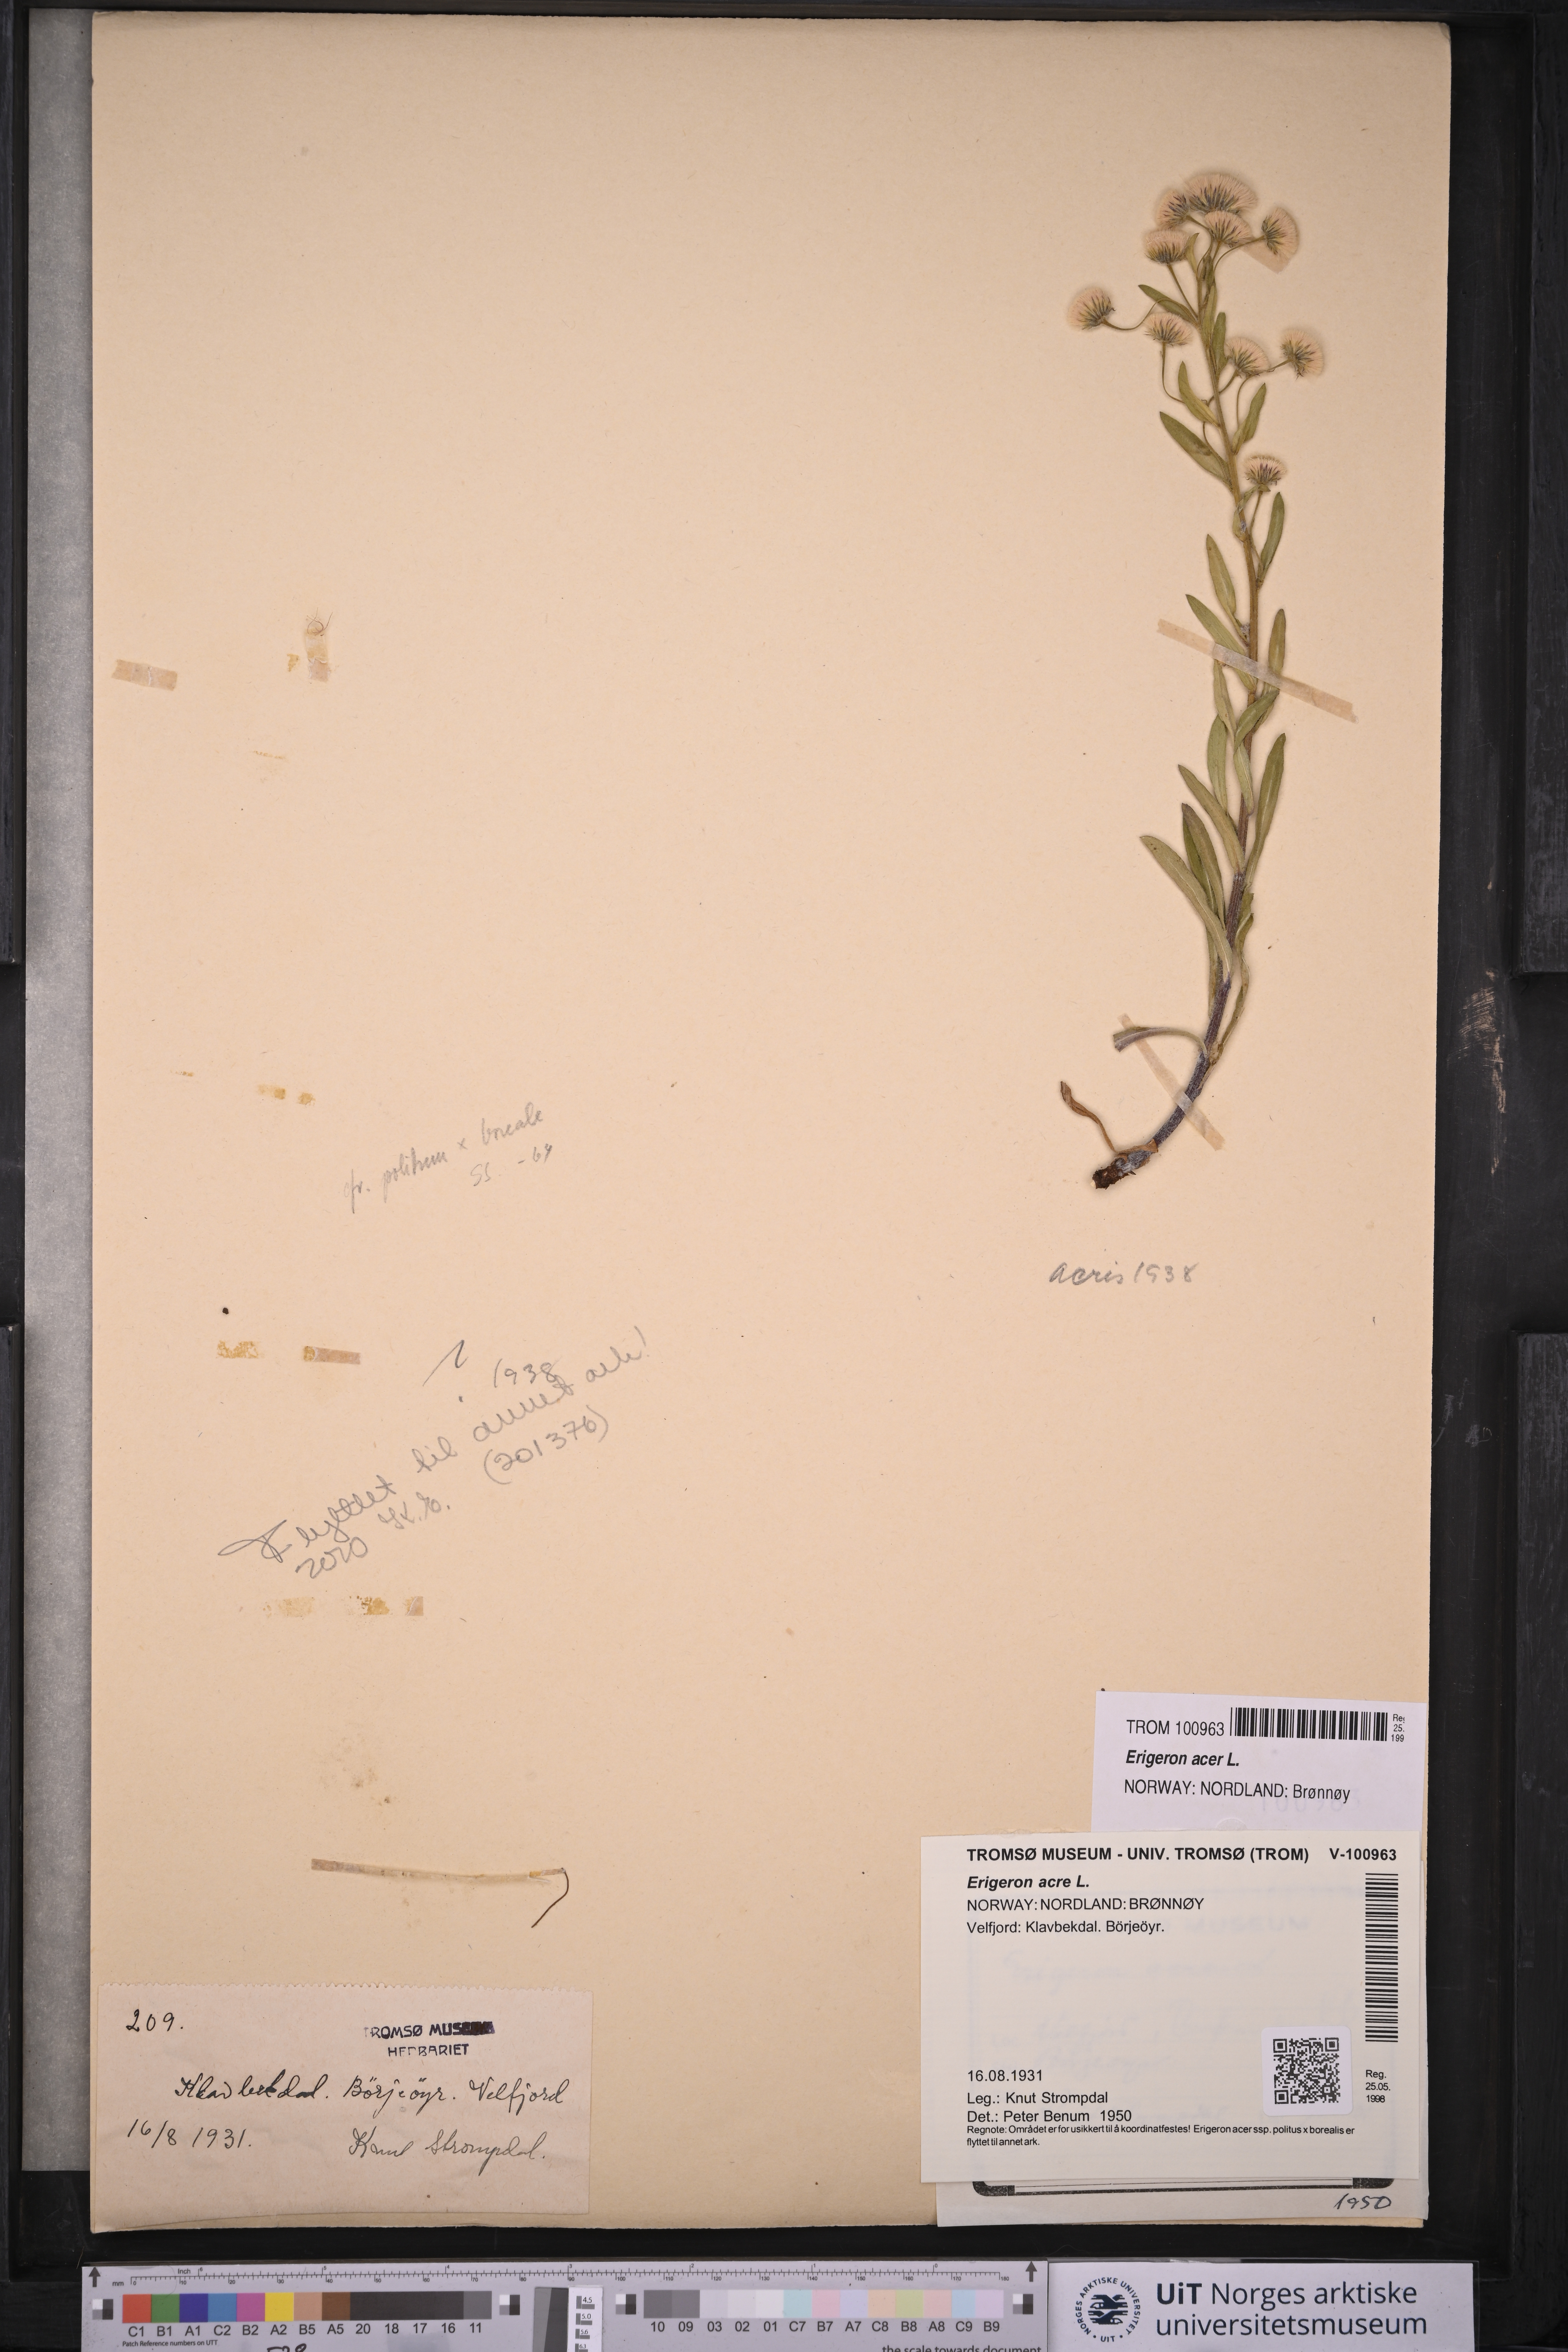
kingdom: Plantae
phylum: Tracheophyta
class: Magnoliopsida
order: Asterales
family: Asteraceae
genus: Erigeron
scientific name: Erigeron acris
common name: Blue fleabane
